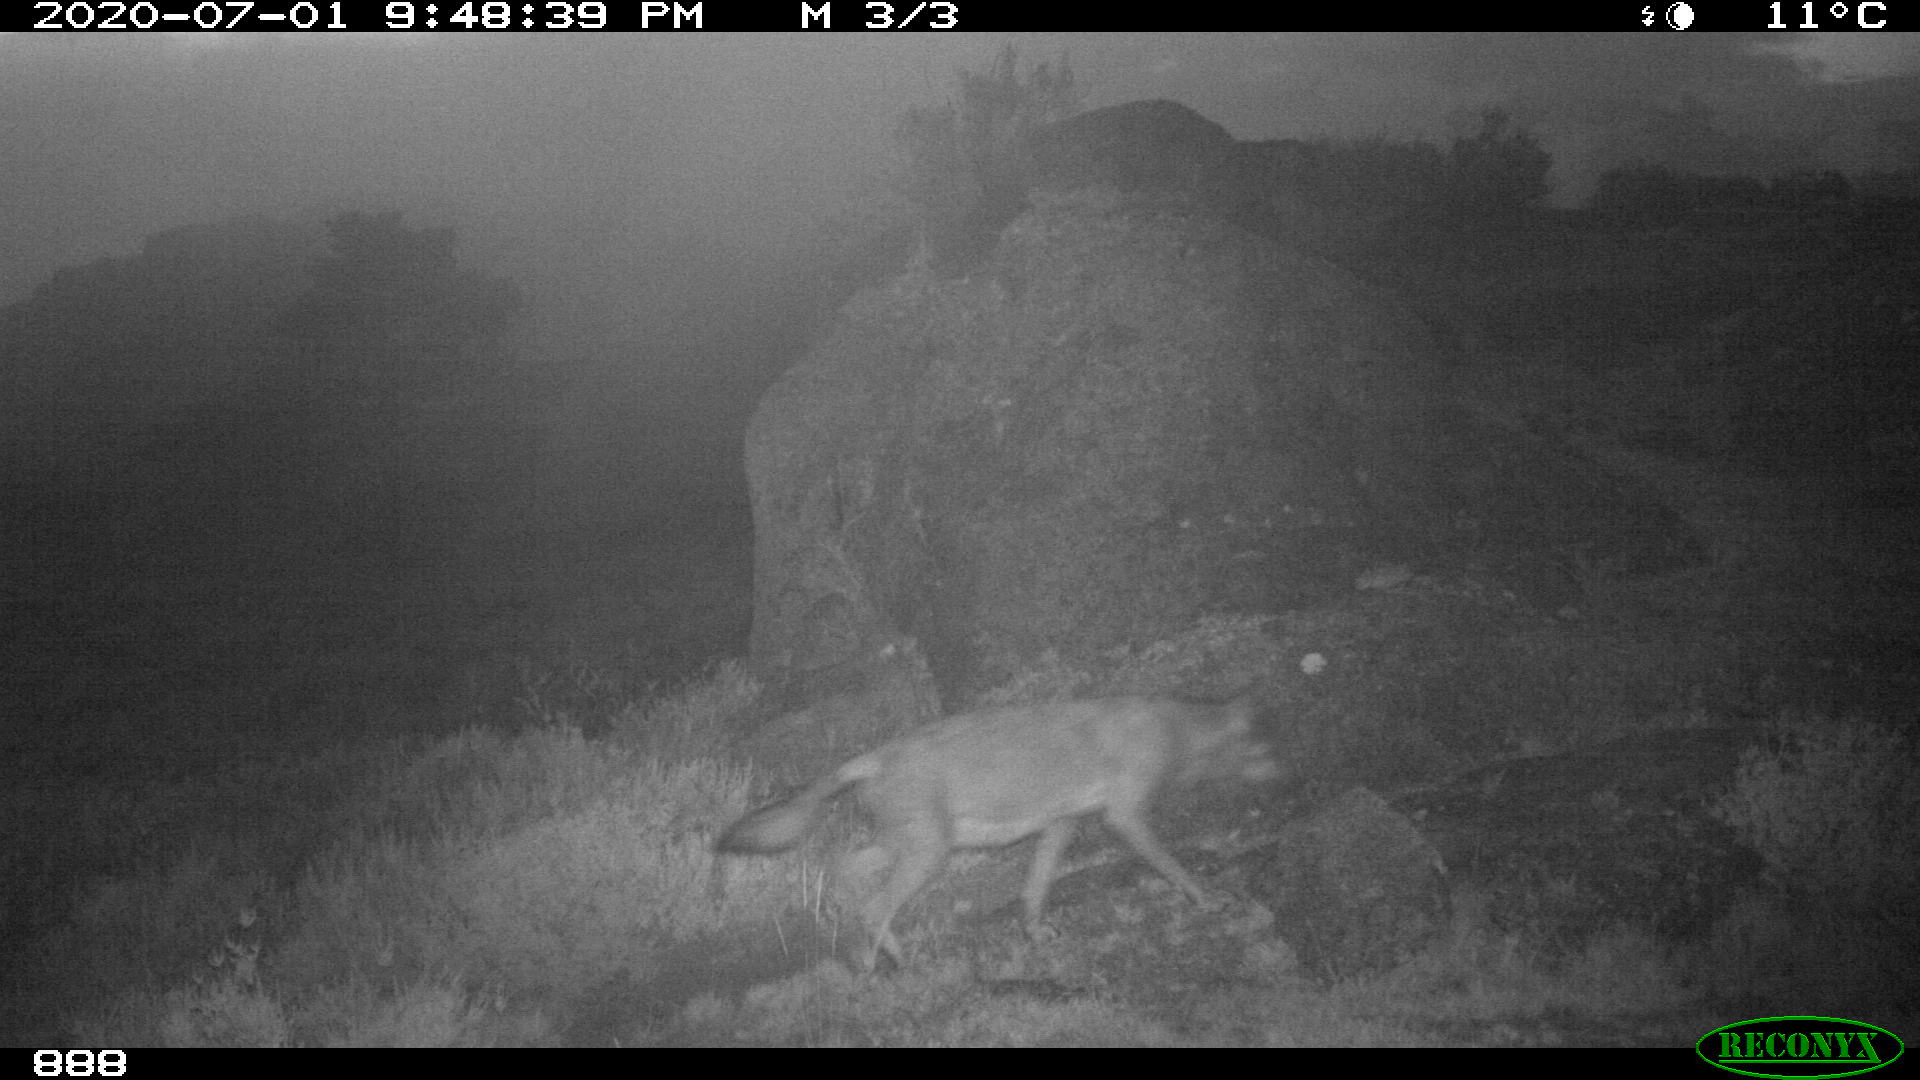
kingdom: Animalia
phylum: Chordata
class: Mammalia
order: Carnivora
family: Canidae
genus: Canis
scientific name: Canis lupus
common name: Gray wolf
